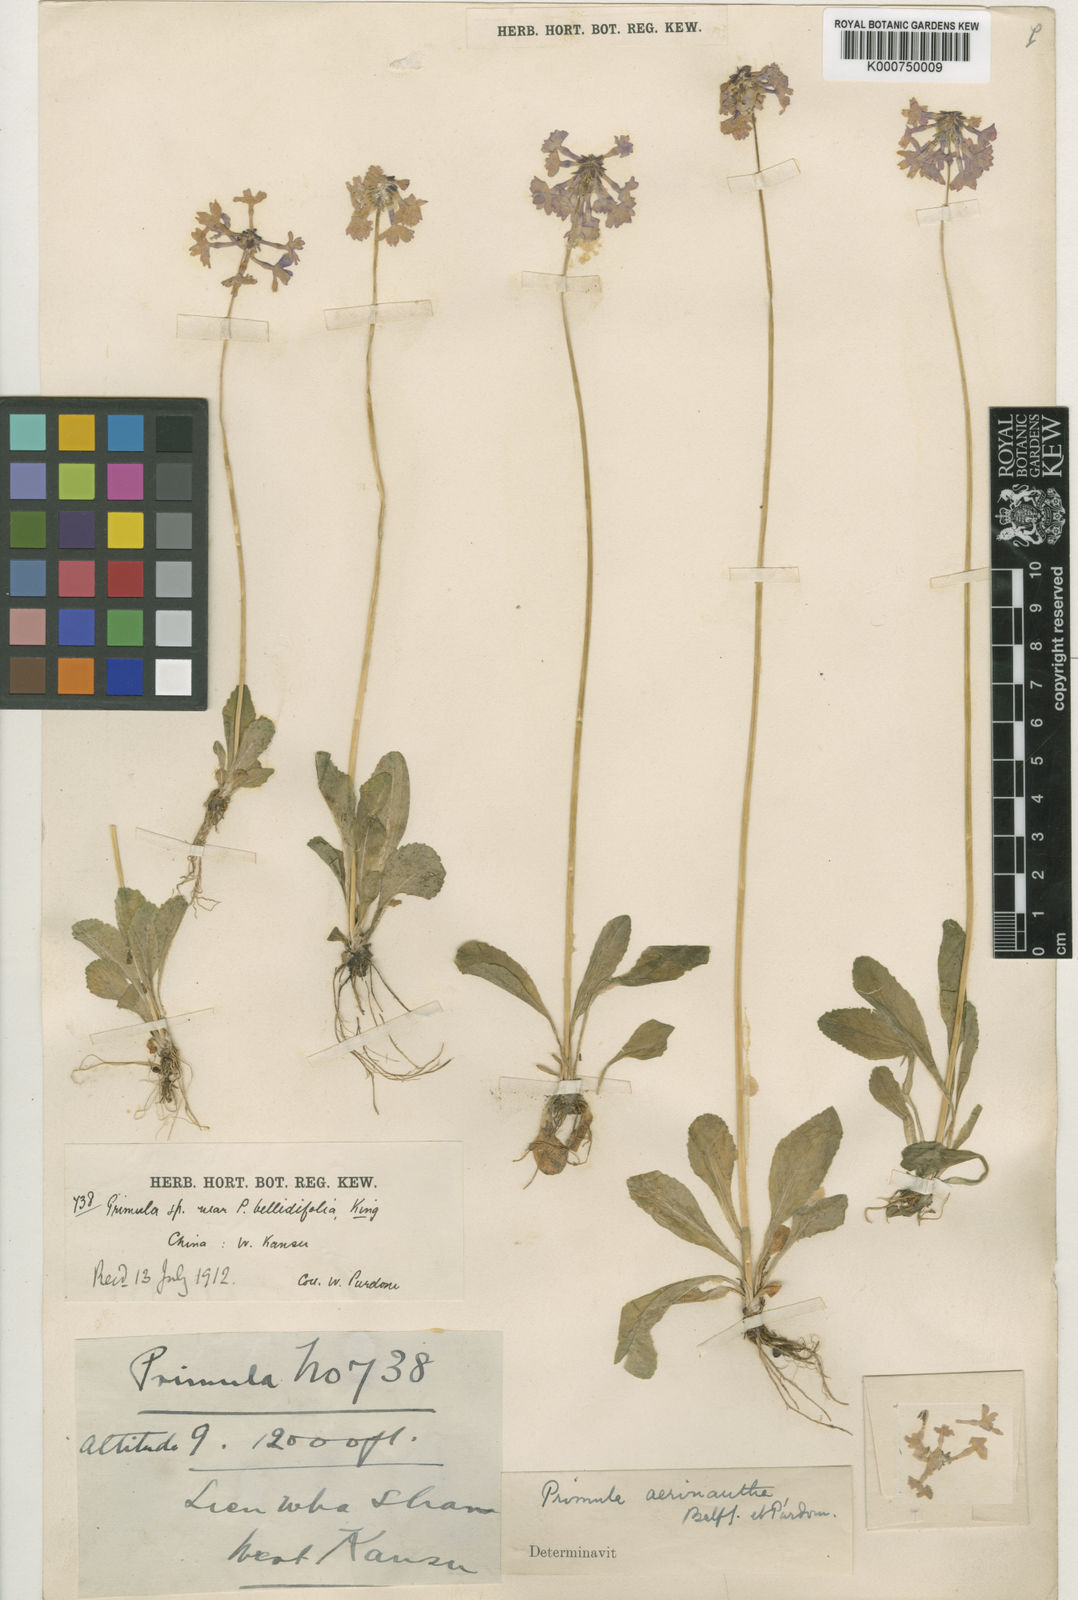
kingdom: Plantae
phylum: Tracheophyta
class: Magnoliopsida
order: Ericales
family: Primulaceae
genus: Primula
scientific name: Primula aerinantha
